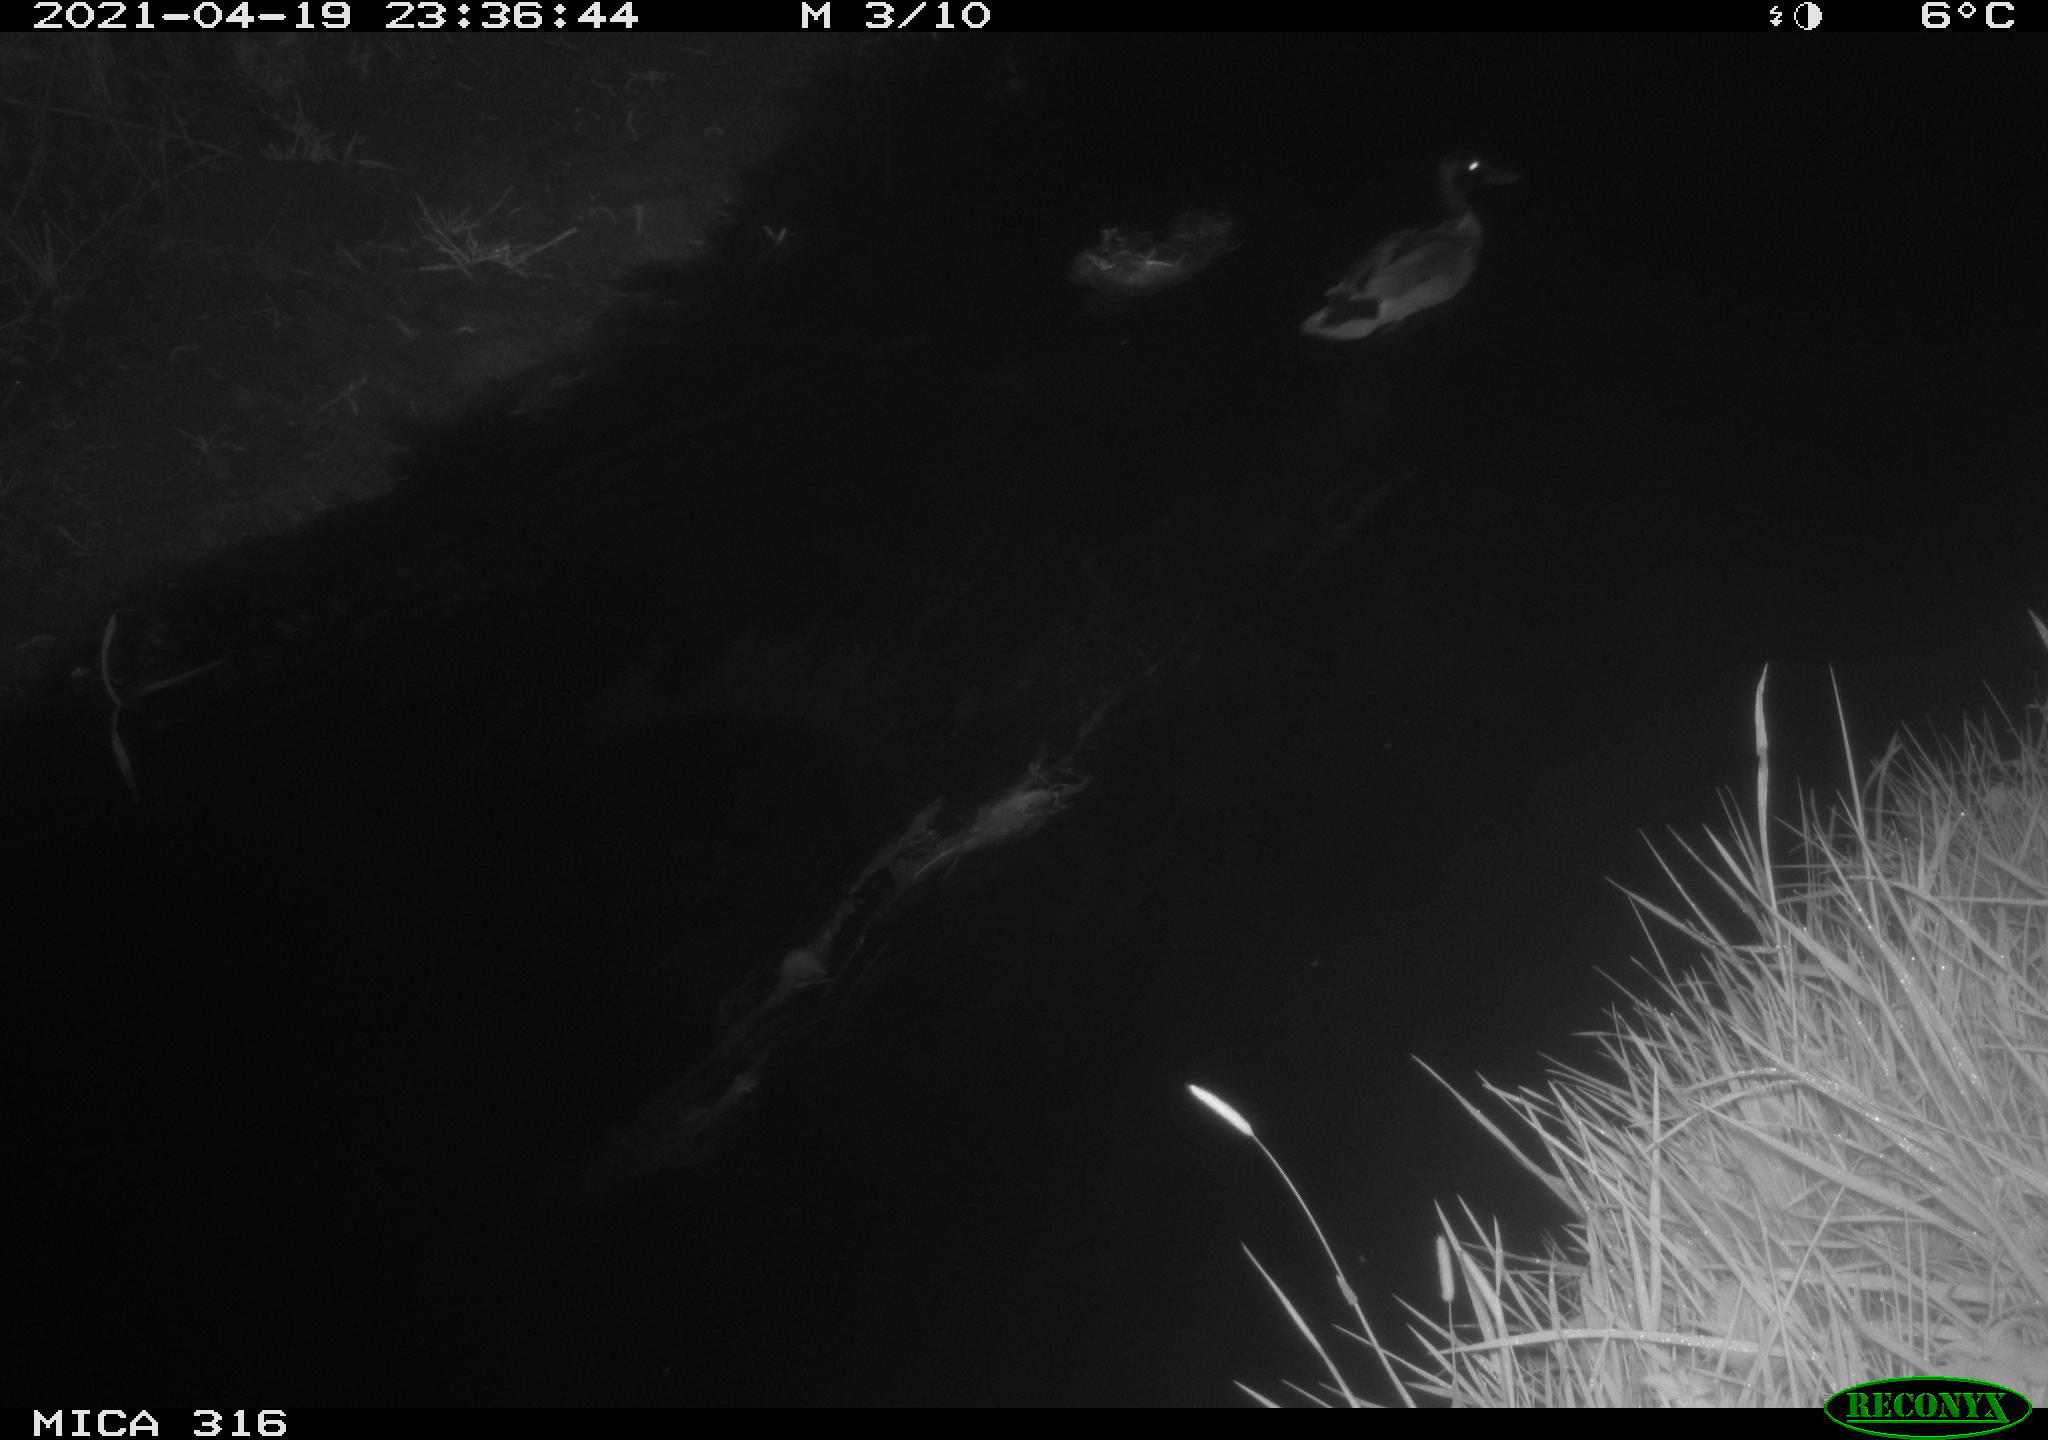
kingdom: Animalia
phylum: Chordata
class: Aves
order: Anseriformes
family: Anatidae
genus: Anas
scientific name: Anas platyrhynchos
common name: Mallard
